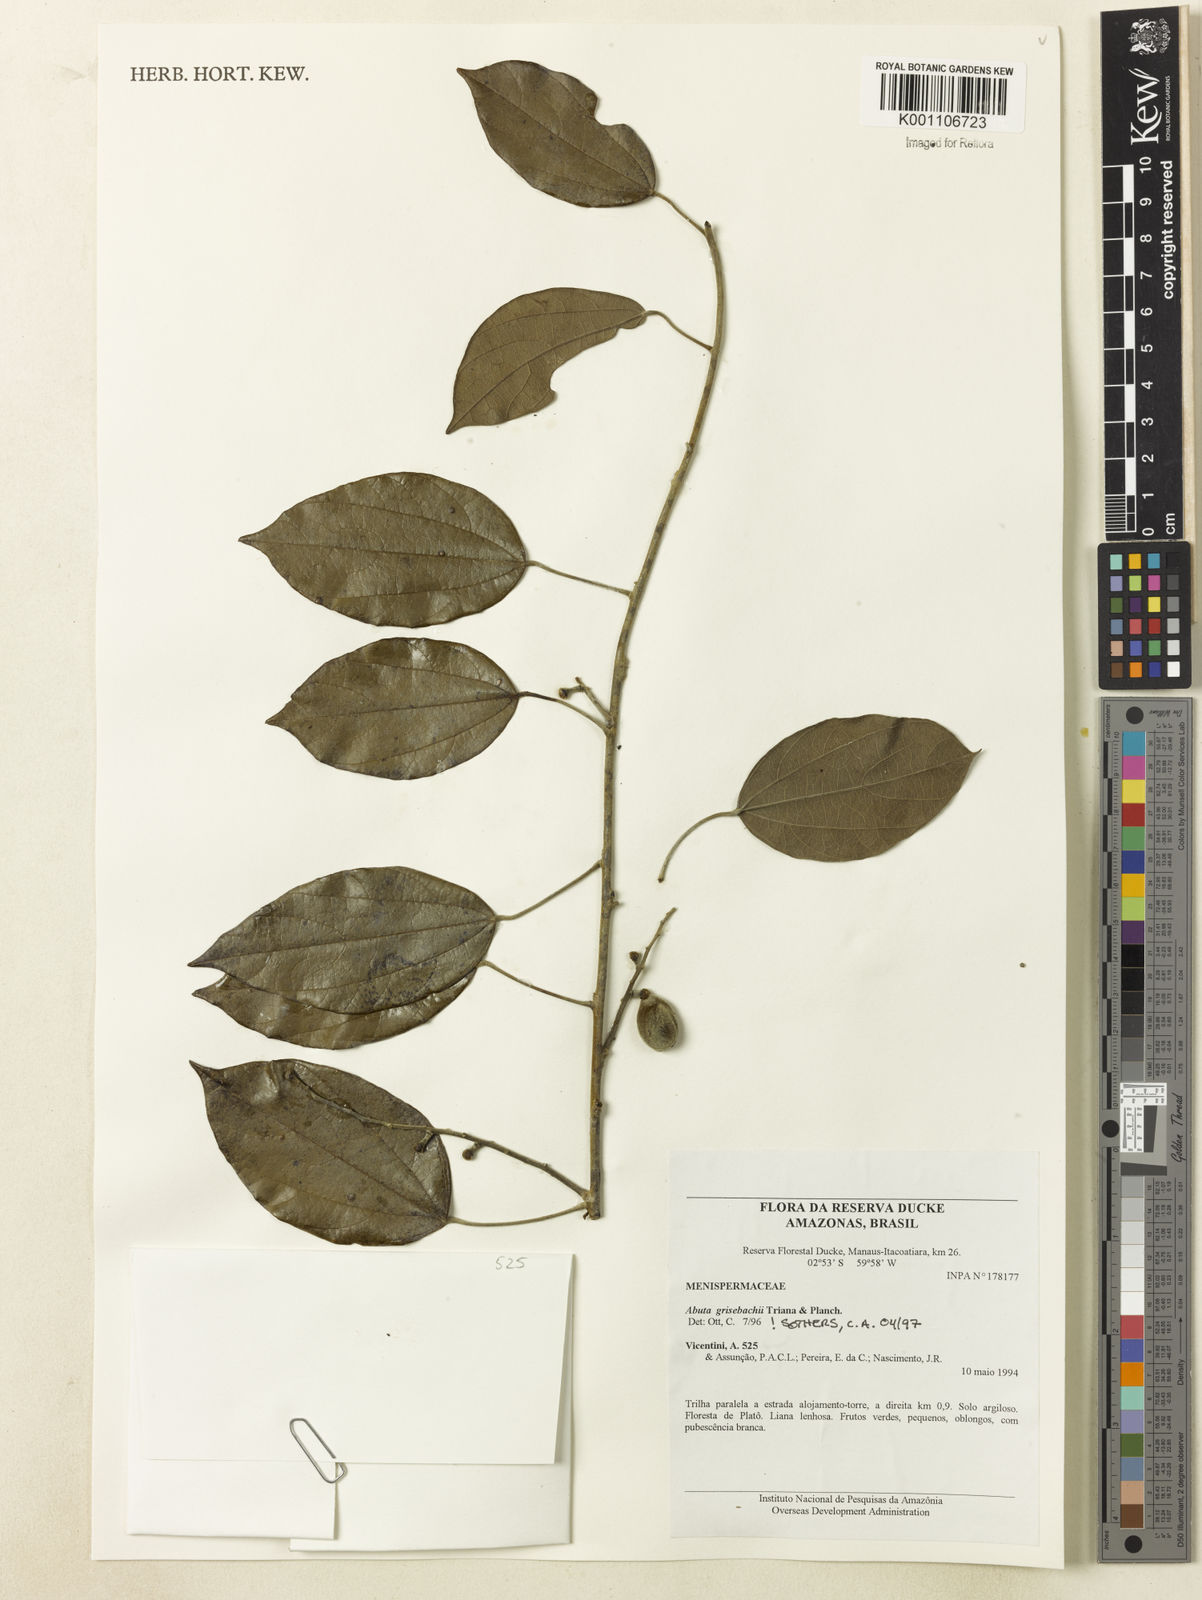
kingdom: Plantae
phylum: Tracheophyta
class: Magnoliopsida
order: Ranunculales
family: Menispermaceae
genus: Abuta
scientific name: Abuta grisebachii
